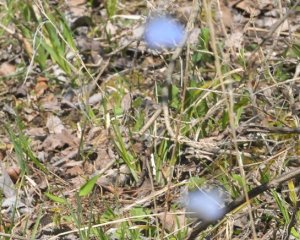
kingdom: Animalia
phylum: Arthropoda
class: Insecta
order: Lepidoptera
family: Lycaenidae
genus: Celastrina
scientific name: Celastrina
